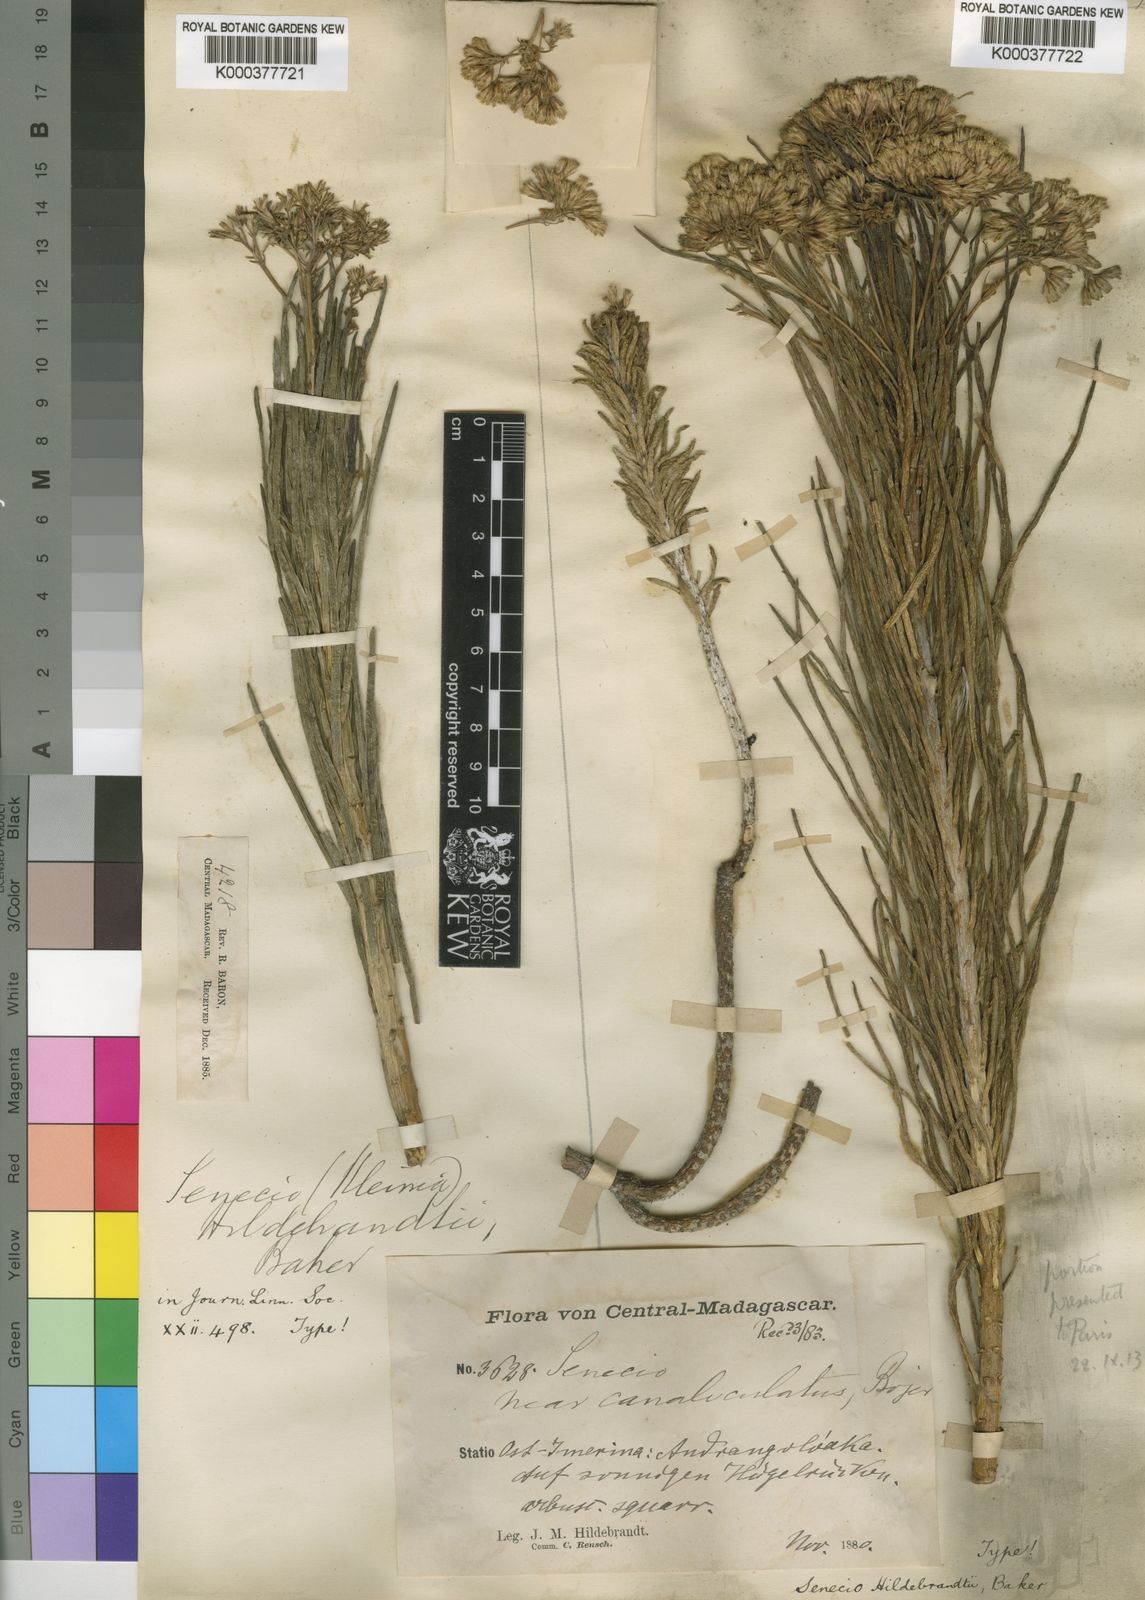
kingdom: Plantae
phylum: Tracheophyta
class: Magnoliopsida
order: Asterales
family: Asteraceae
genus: Kleinia
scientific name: Kleinia
